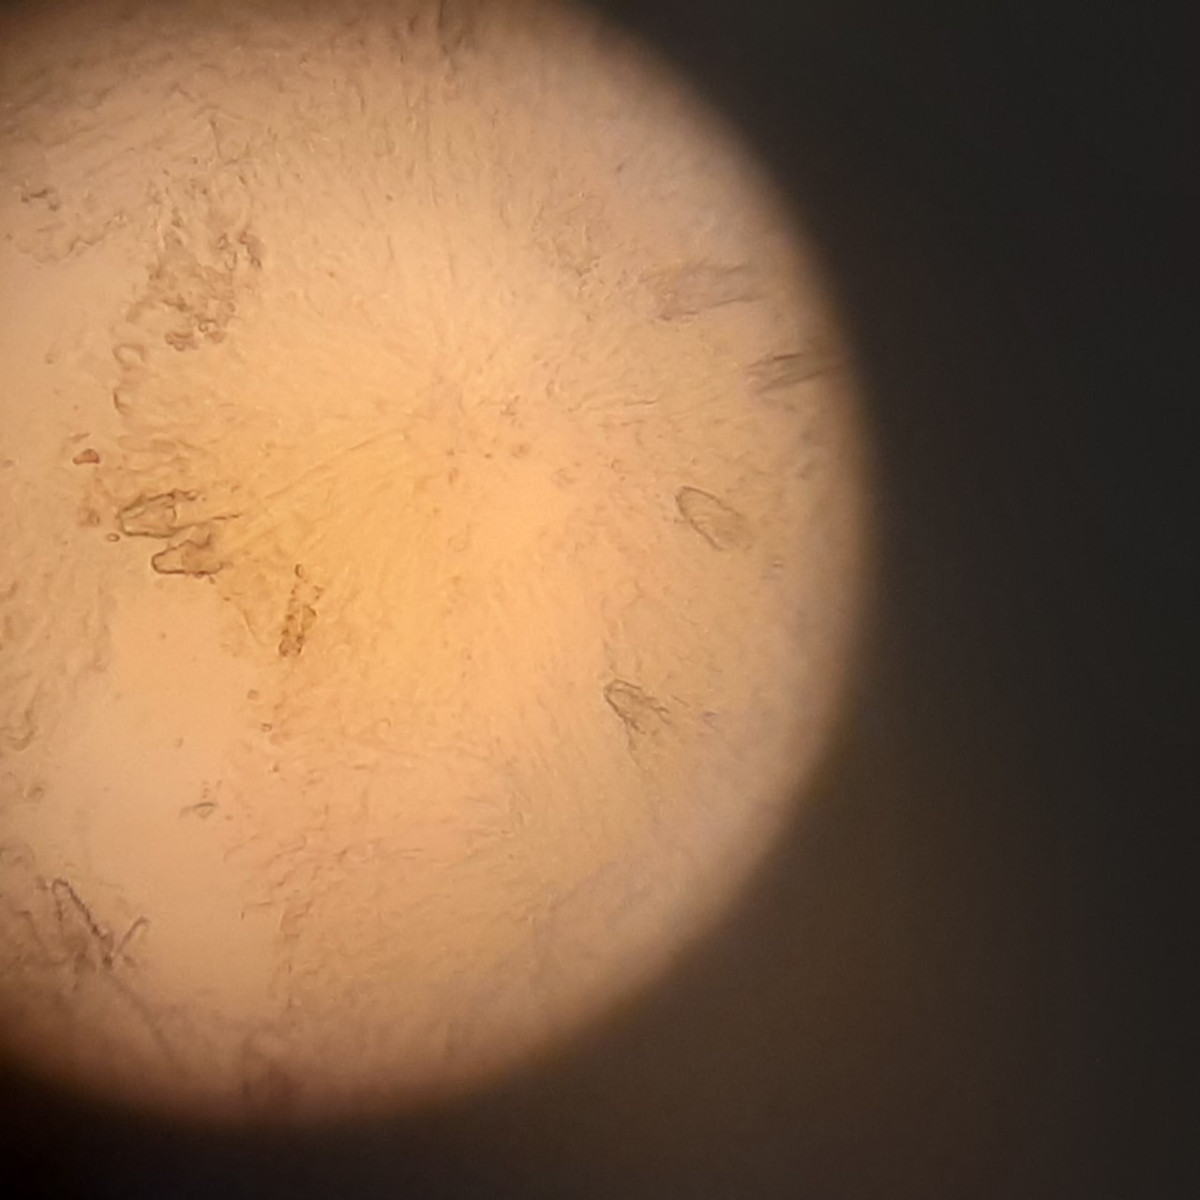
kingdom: Fungi
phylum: Basidiomycota
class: Agaricomycetes
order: Polyporales
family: Phanerochaetaceae
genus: Phlebiopsis
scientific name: Phlebiopsis gigantea
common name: kæmpebarksvamp
